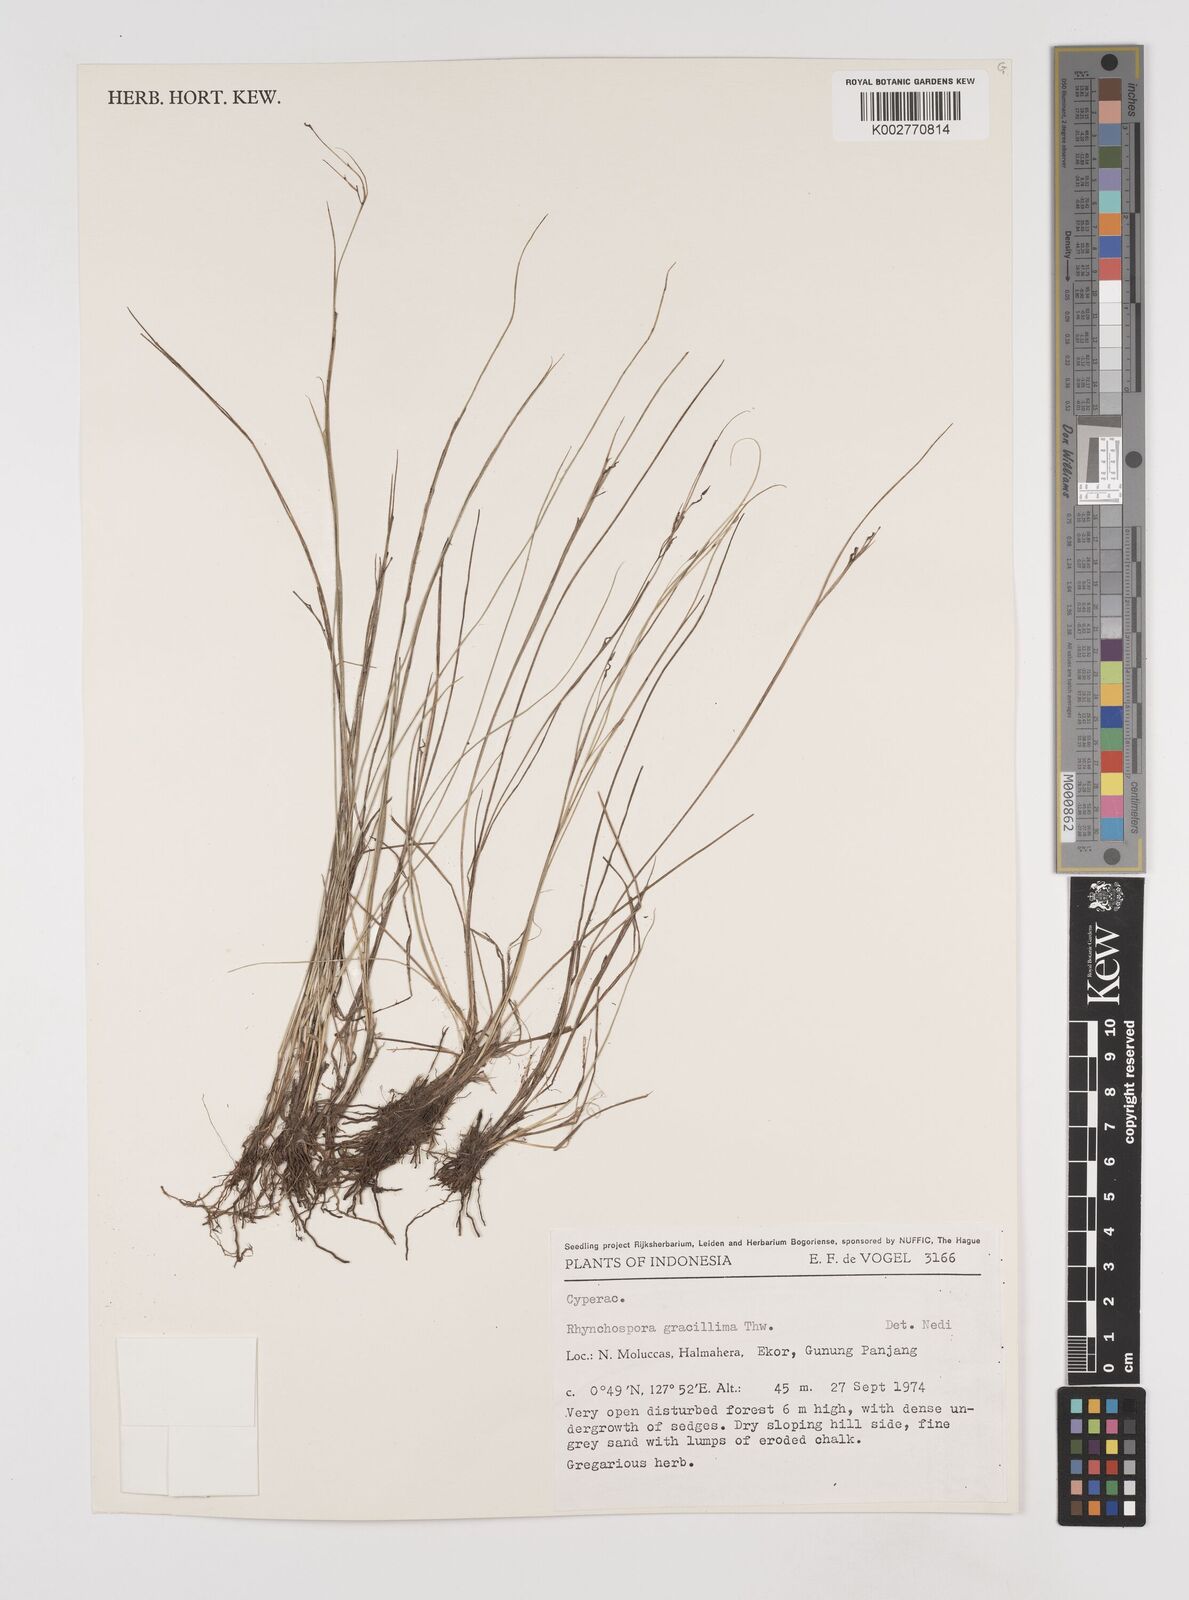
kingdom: Plantae
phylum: Tracheophyta
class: Liliopsida
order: Poales
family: Cyperaceae
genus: Rhynchospora
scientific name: Rhynchospora gracillima
